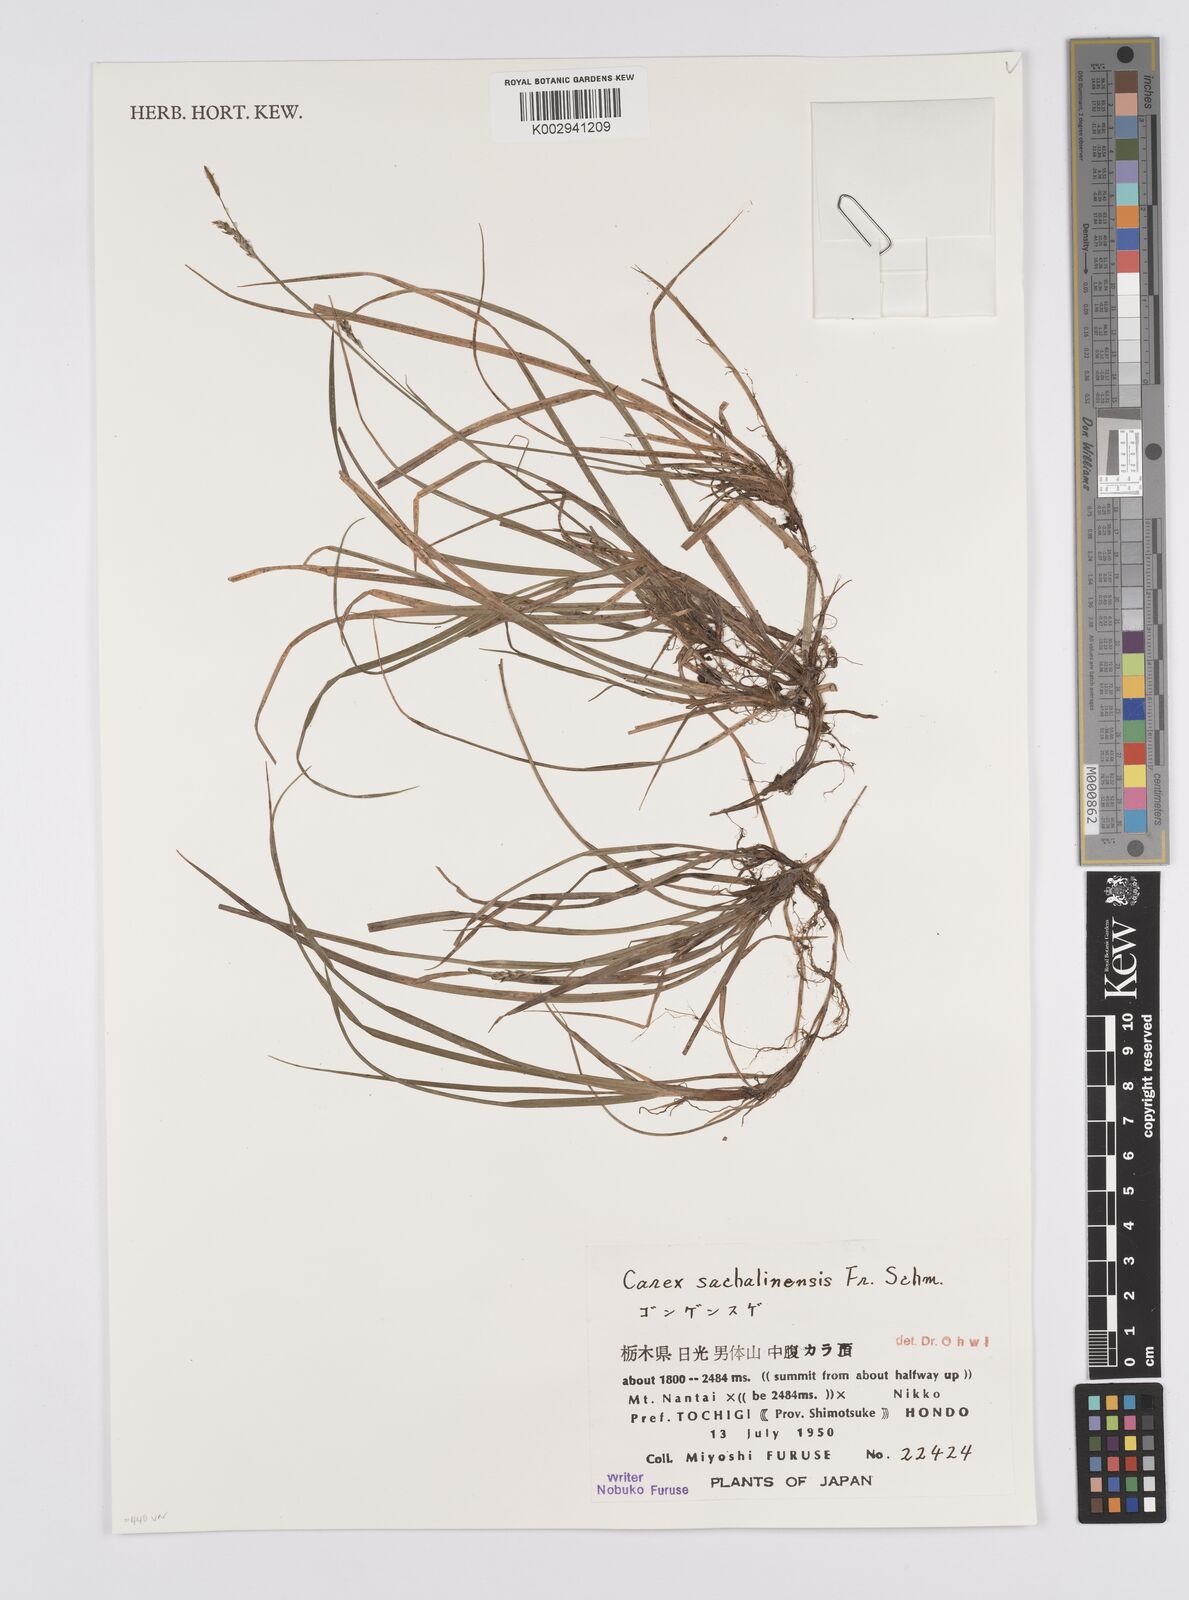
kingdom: Plantae
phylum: Tracheophyta
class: Liliopsida
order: Poales
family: Cyperaceae
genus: Carex
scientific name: Carex pisiformis
